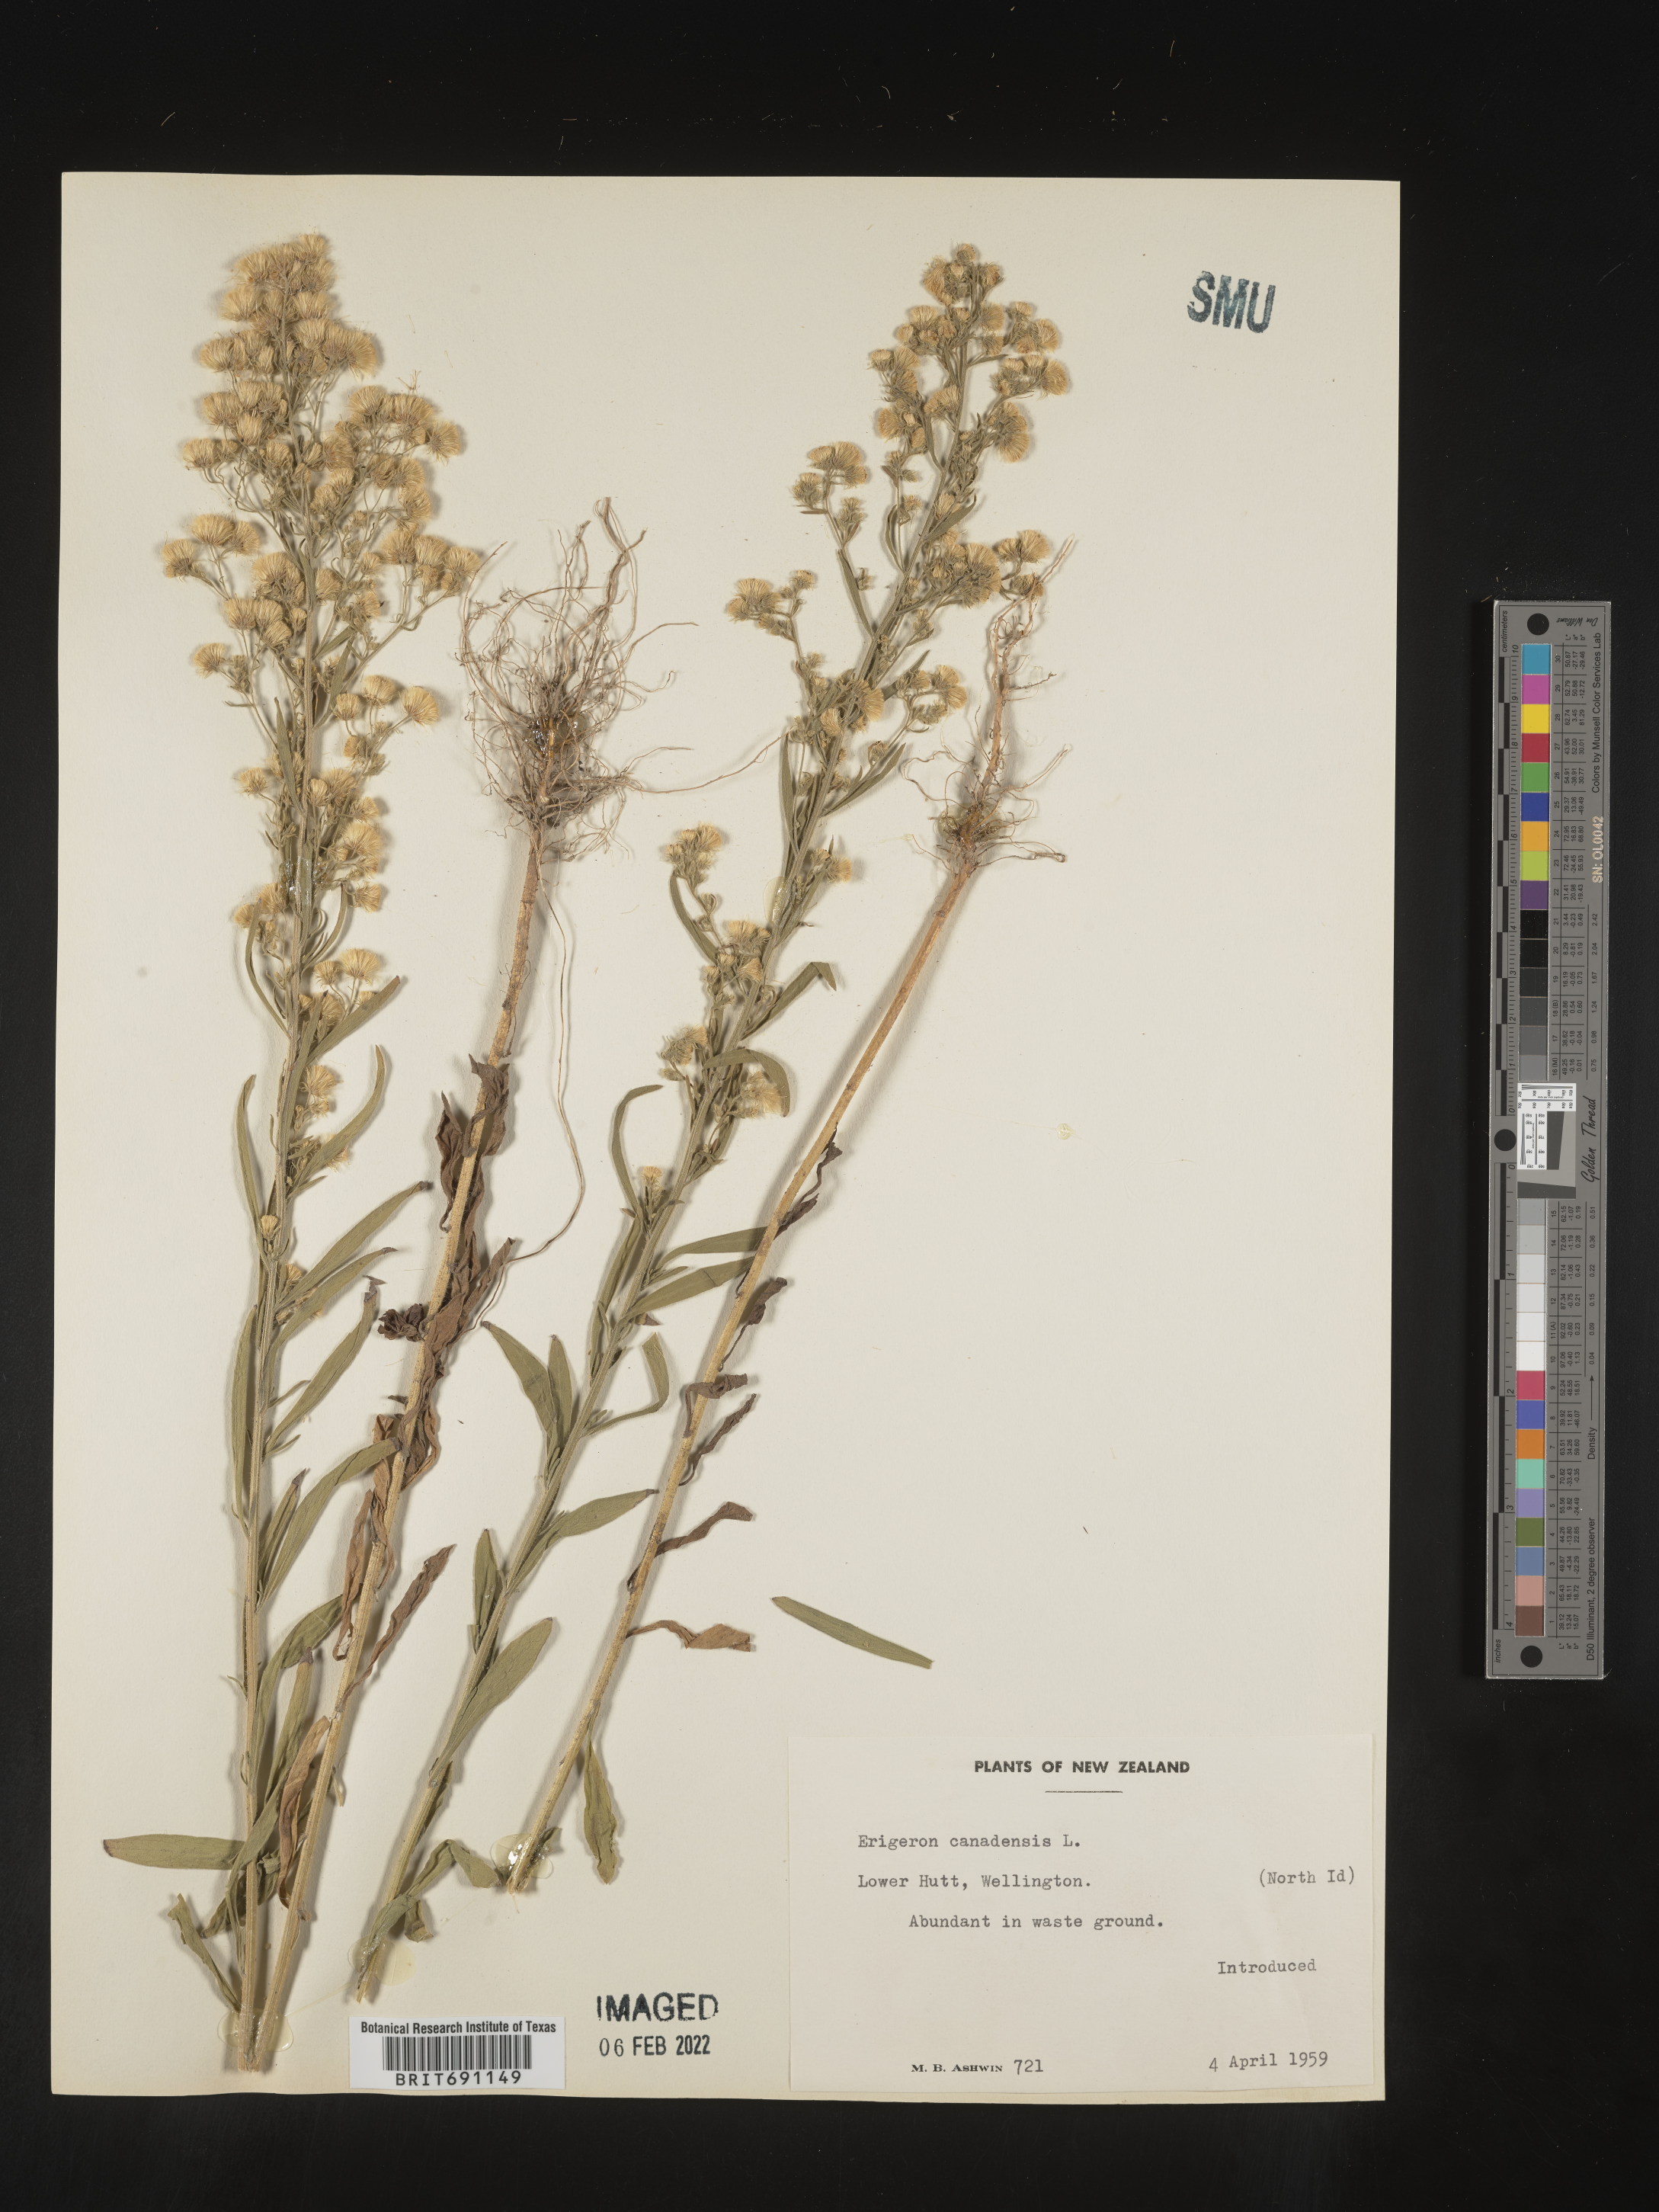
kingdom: Plantae
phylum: Tracheophyta
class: Magnoliopsida
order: Asterales
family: Asteraceae
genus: Conyza
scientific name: Conyza
